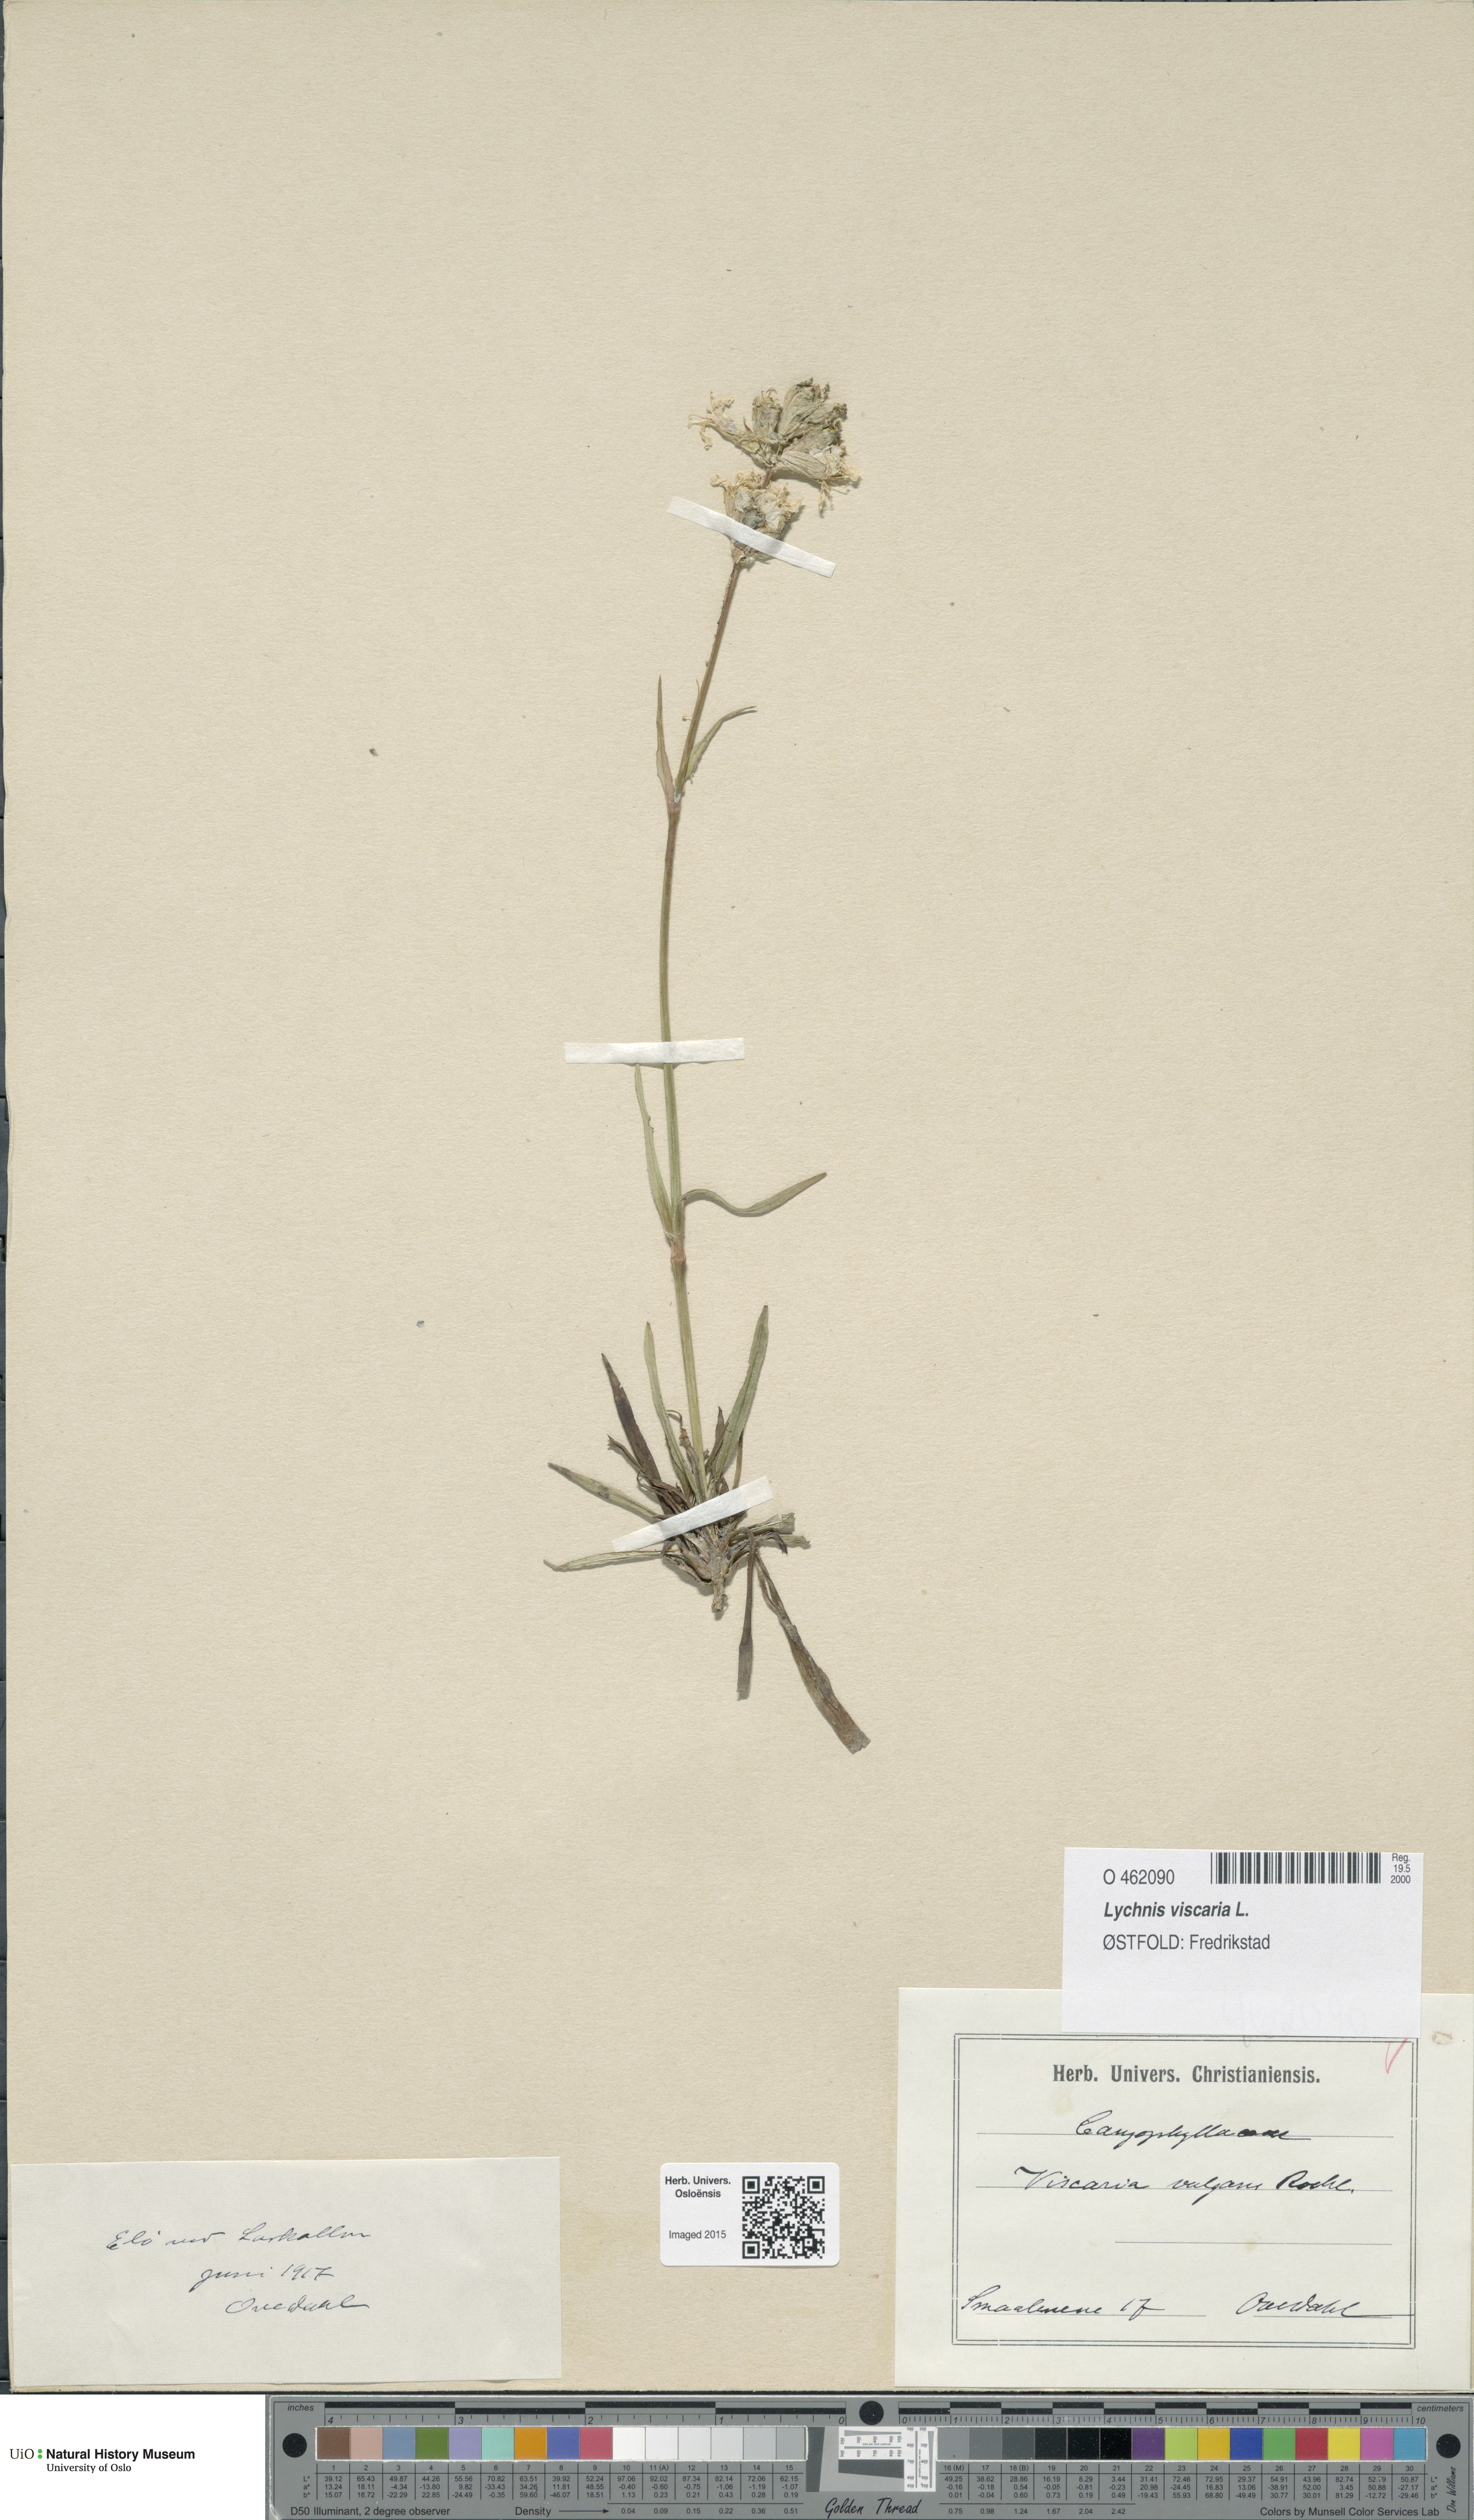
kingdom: Plantae
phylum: Tracheophyta
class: Magnoliopsida
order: Caryophyllales
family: Caryophyllaceae
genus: Viscaria
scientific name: Viscaria vulgaris
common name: Clammy campion
